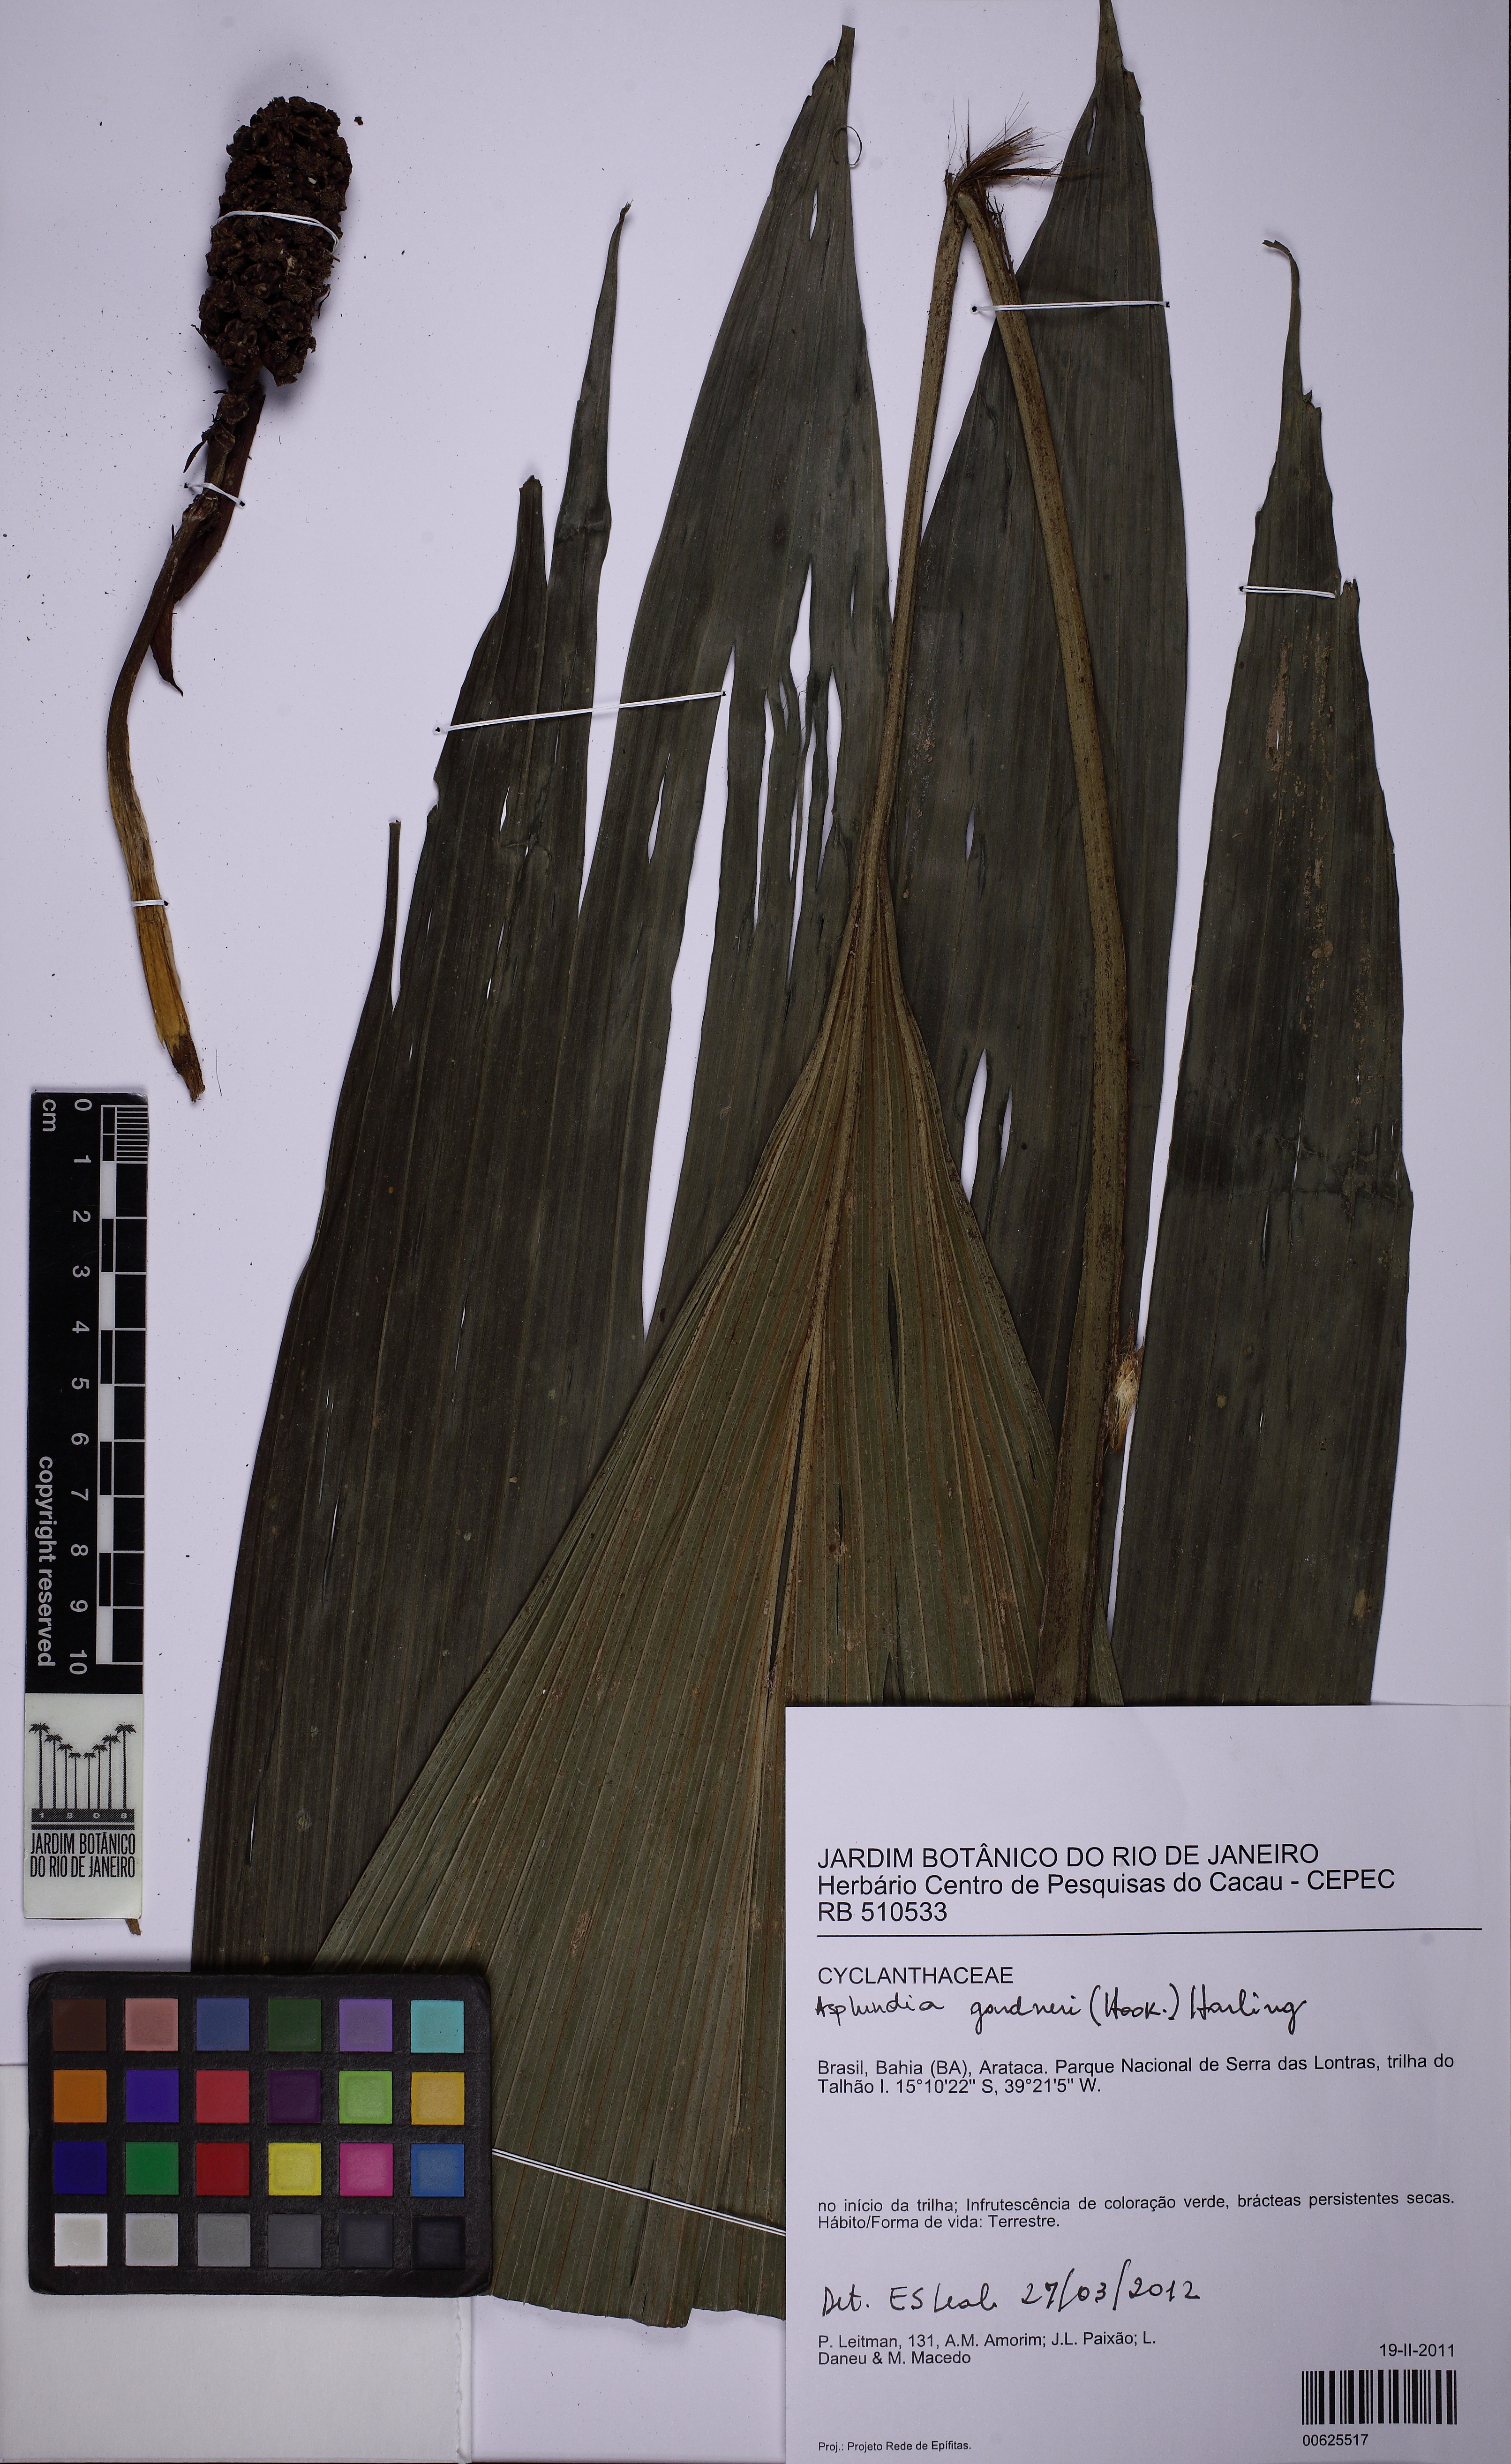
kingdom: Plantae
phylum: Tracheophyta
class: Liliopsida
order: Pandanales
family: Cyclanthaceae
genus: Asplundia
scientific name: Asplundia gardneri
